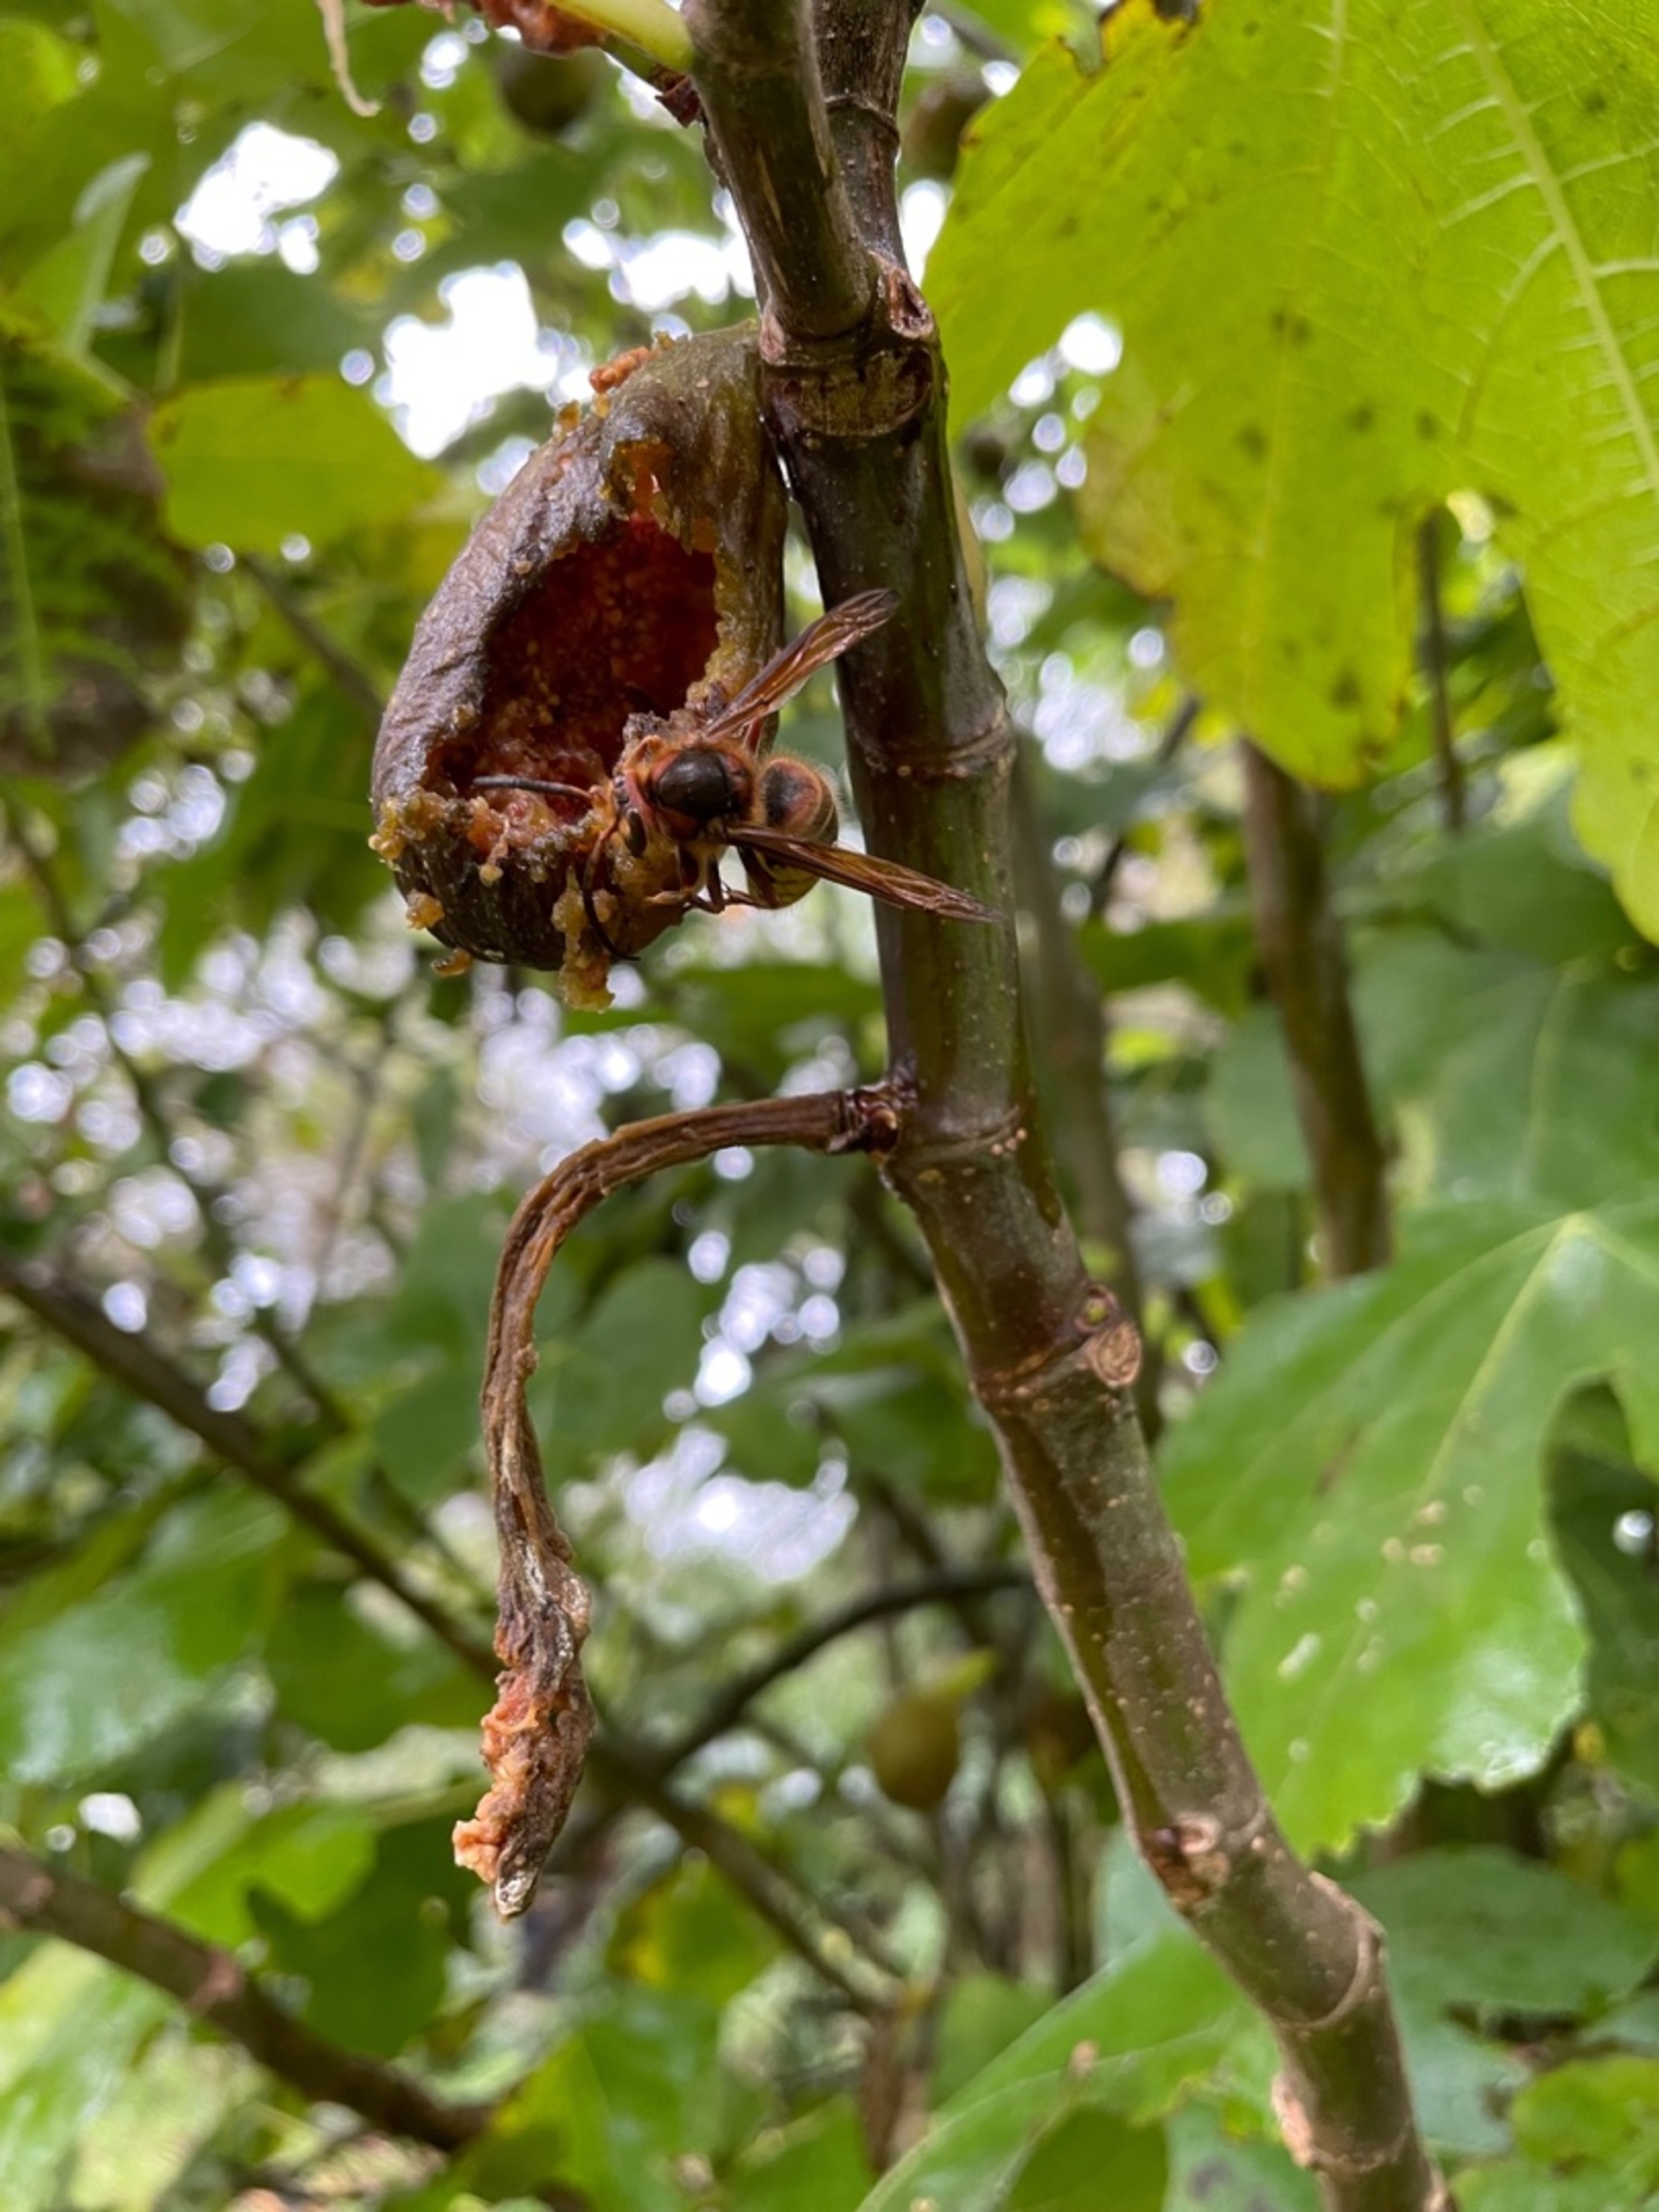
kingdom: Animalia
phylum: Arthropoda
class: Insecta
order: Hymenoptera
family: Vespidae
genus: Vespa
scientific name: Vespa crabro
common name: Stor gedehams
